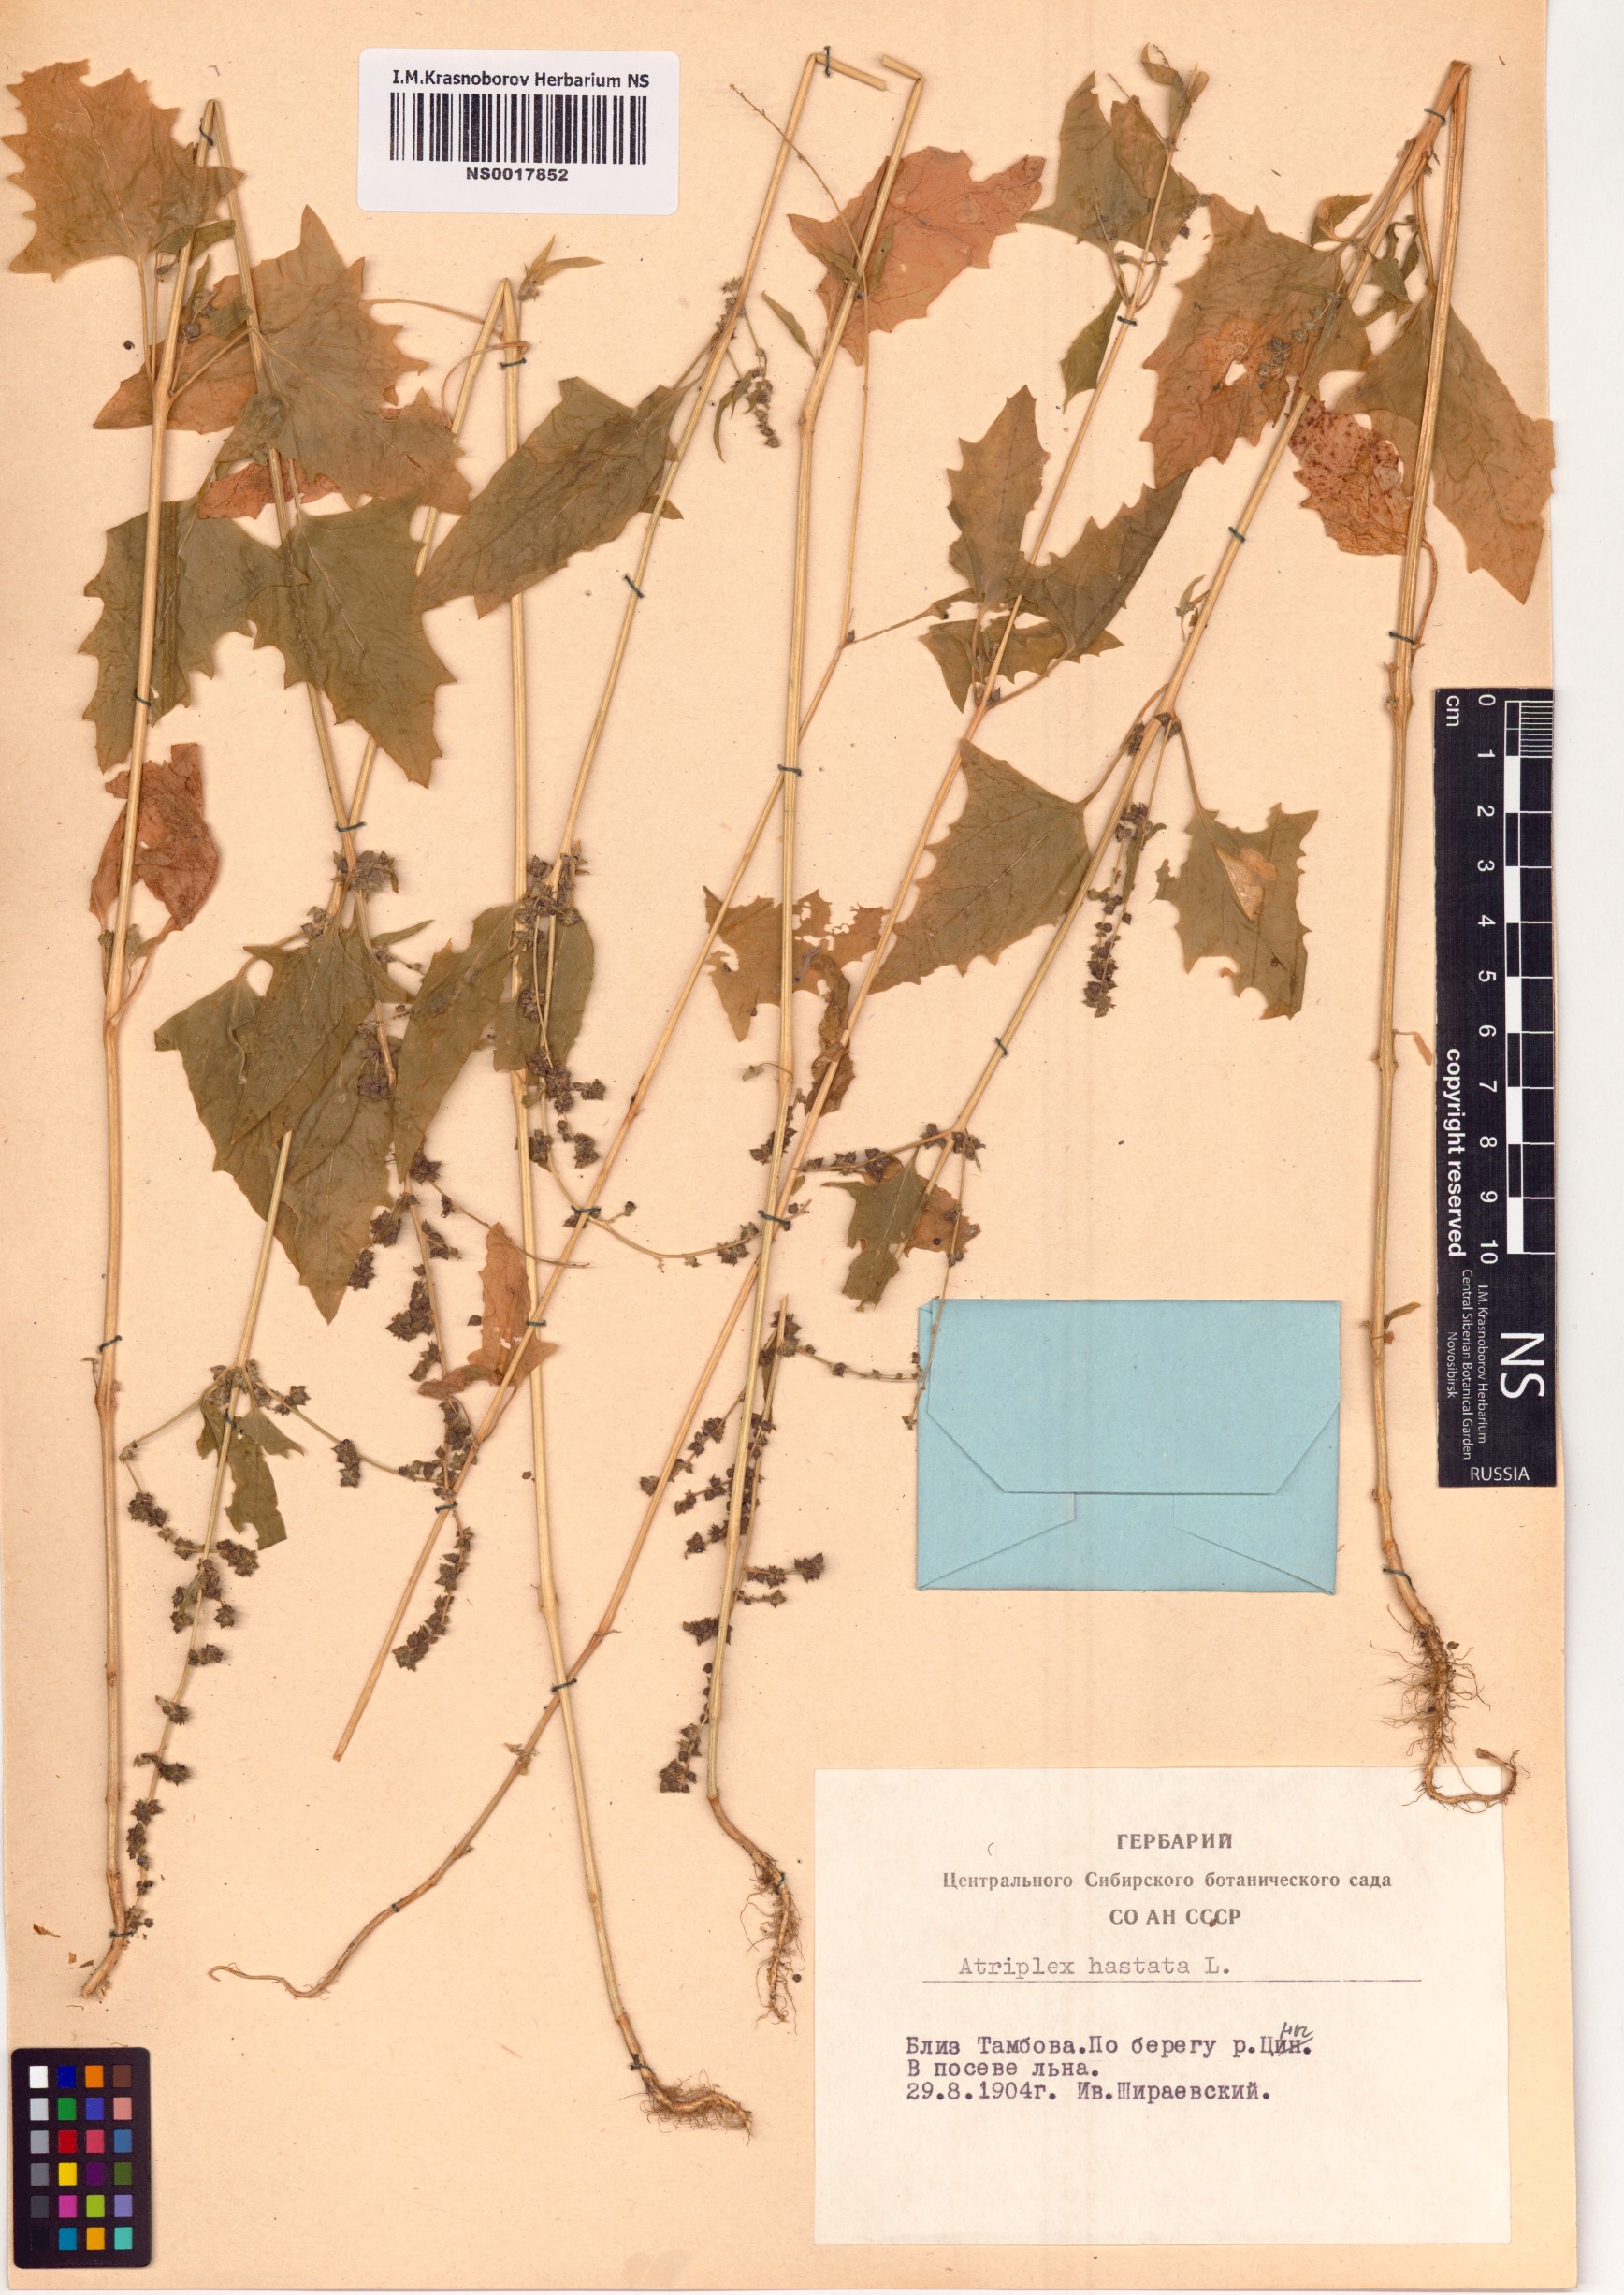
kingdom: Plantae
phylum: Tracheophyta
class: Magnoliopsida
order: Caryophyllales
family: Amaranthaceae
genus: Atriplex
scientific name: Atriplex calotheca
